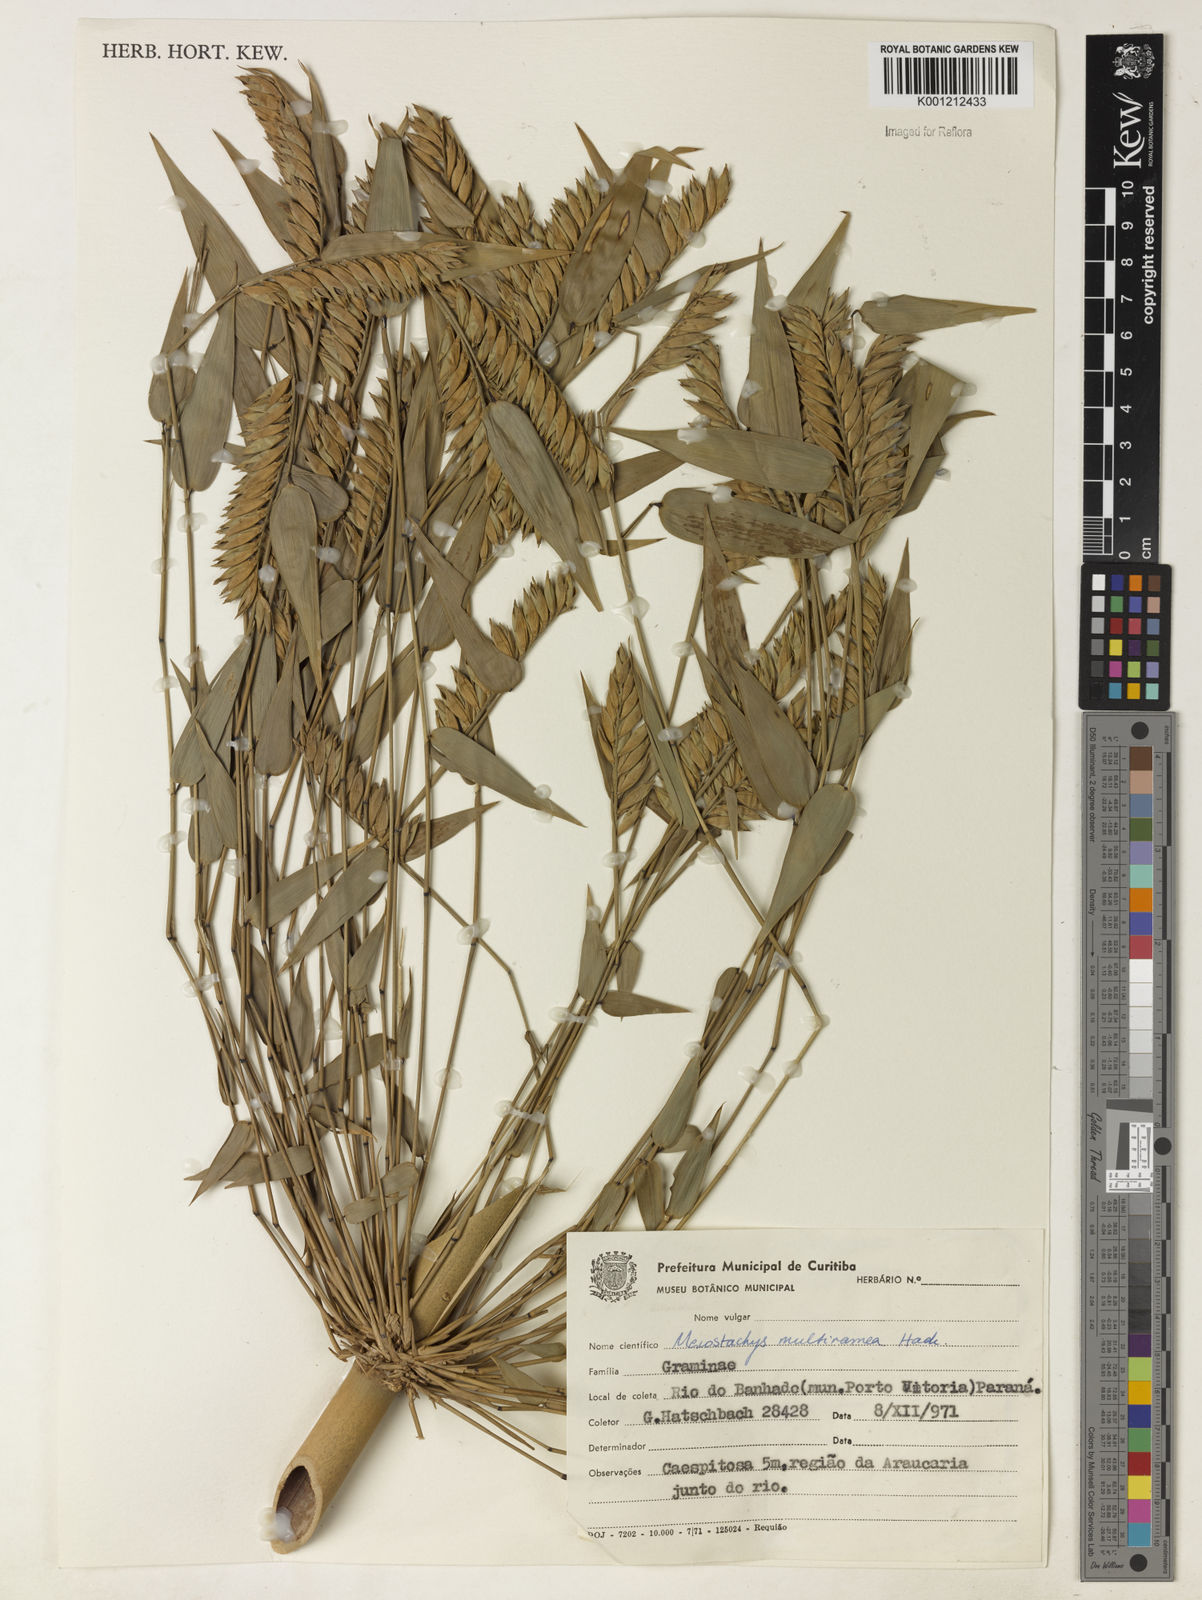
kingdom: Plantae
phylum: Tracheophyta
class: Liliopsida
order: Poales
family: Poaceae
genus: Merostachys
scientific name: Merostachys multiramea
